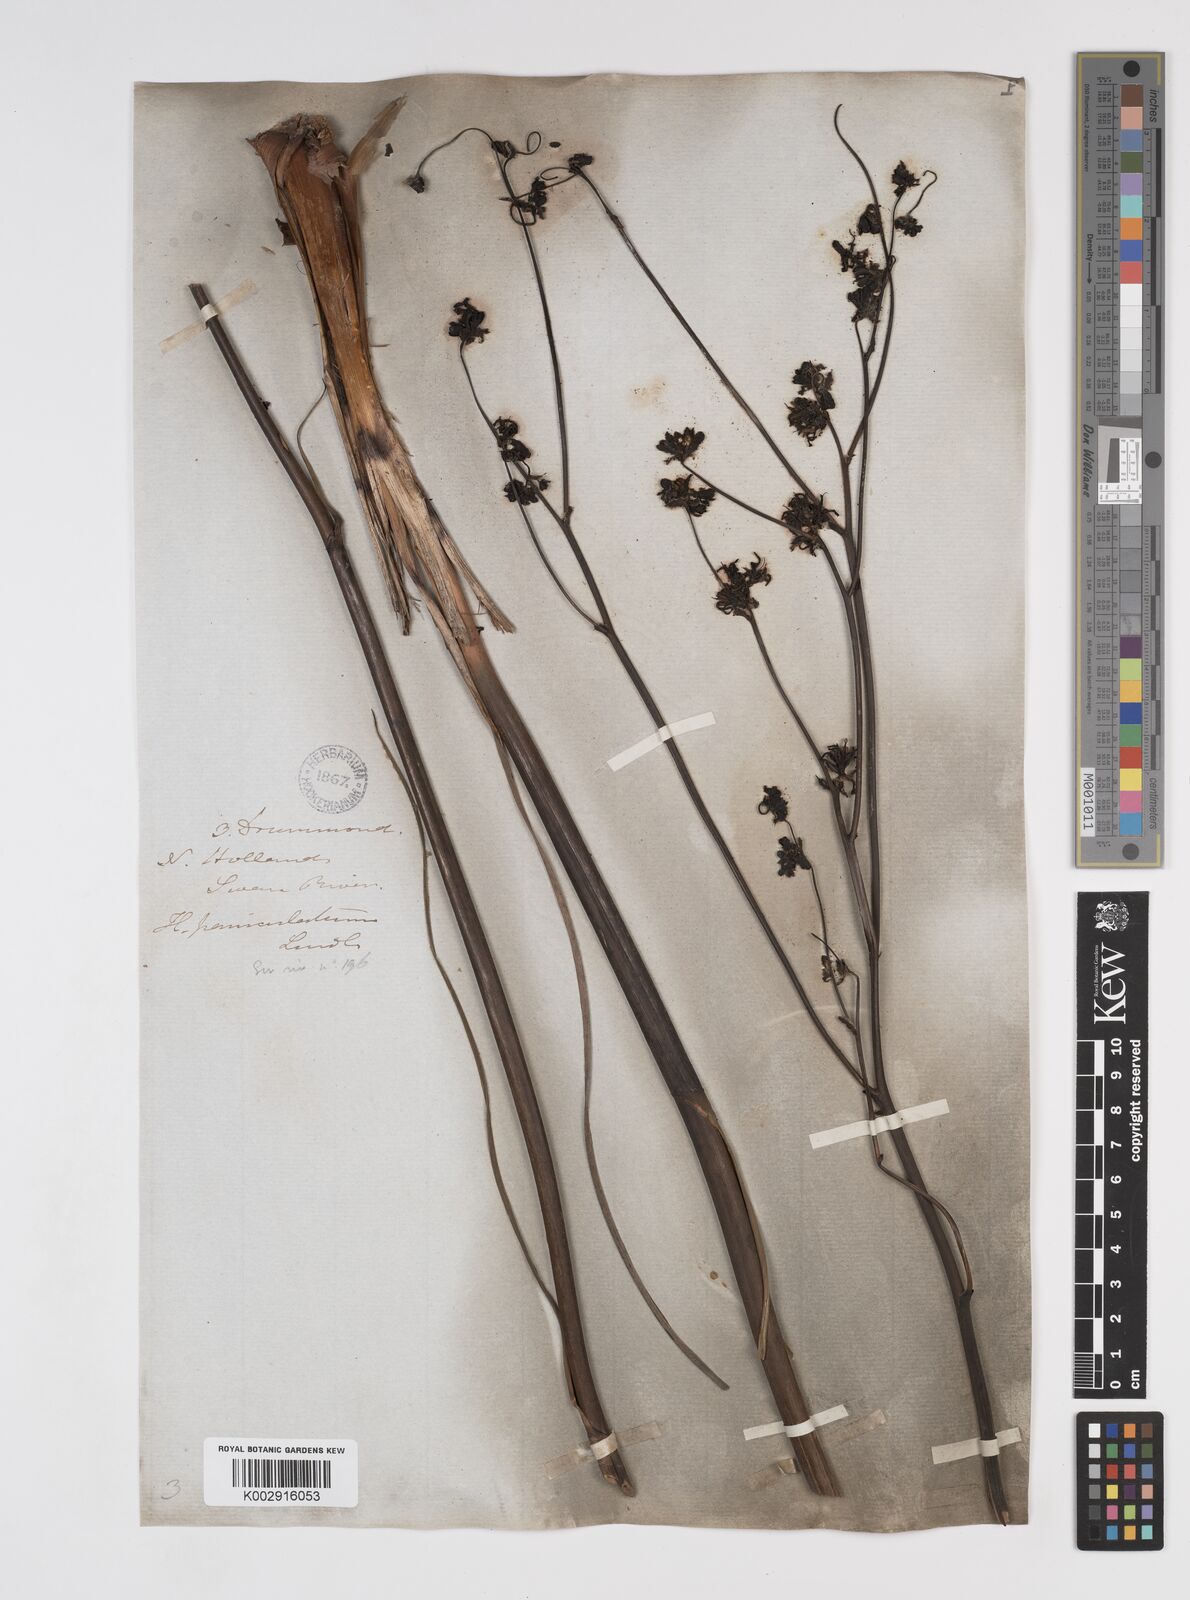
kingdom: Plantae
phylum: Tracheophyta
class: Liliopsida
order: Commelinales
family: Haemodoraceae
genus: Haemodorum
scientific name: Haemodorum paniculatum
